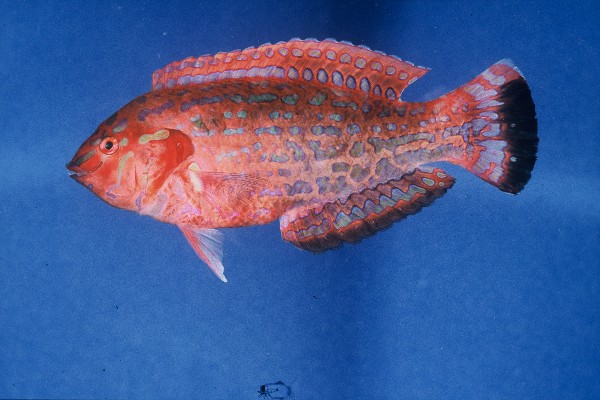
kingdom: Animalia
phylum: Chordata
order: Perciformes
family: Labridae
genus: Halichoeres
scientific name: Halichoeres lapillus
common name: Jewelled wrasse
